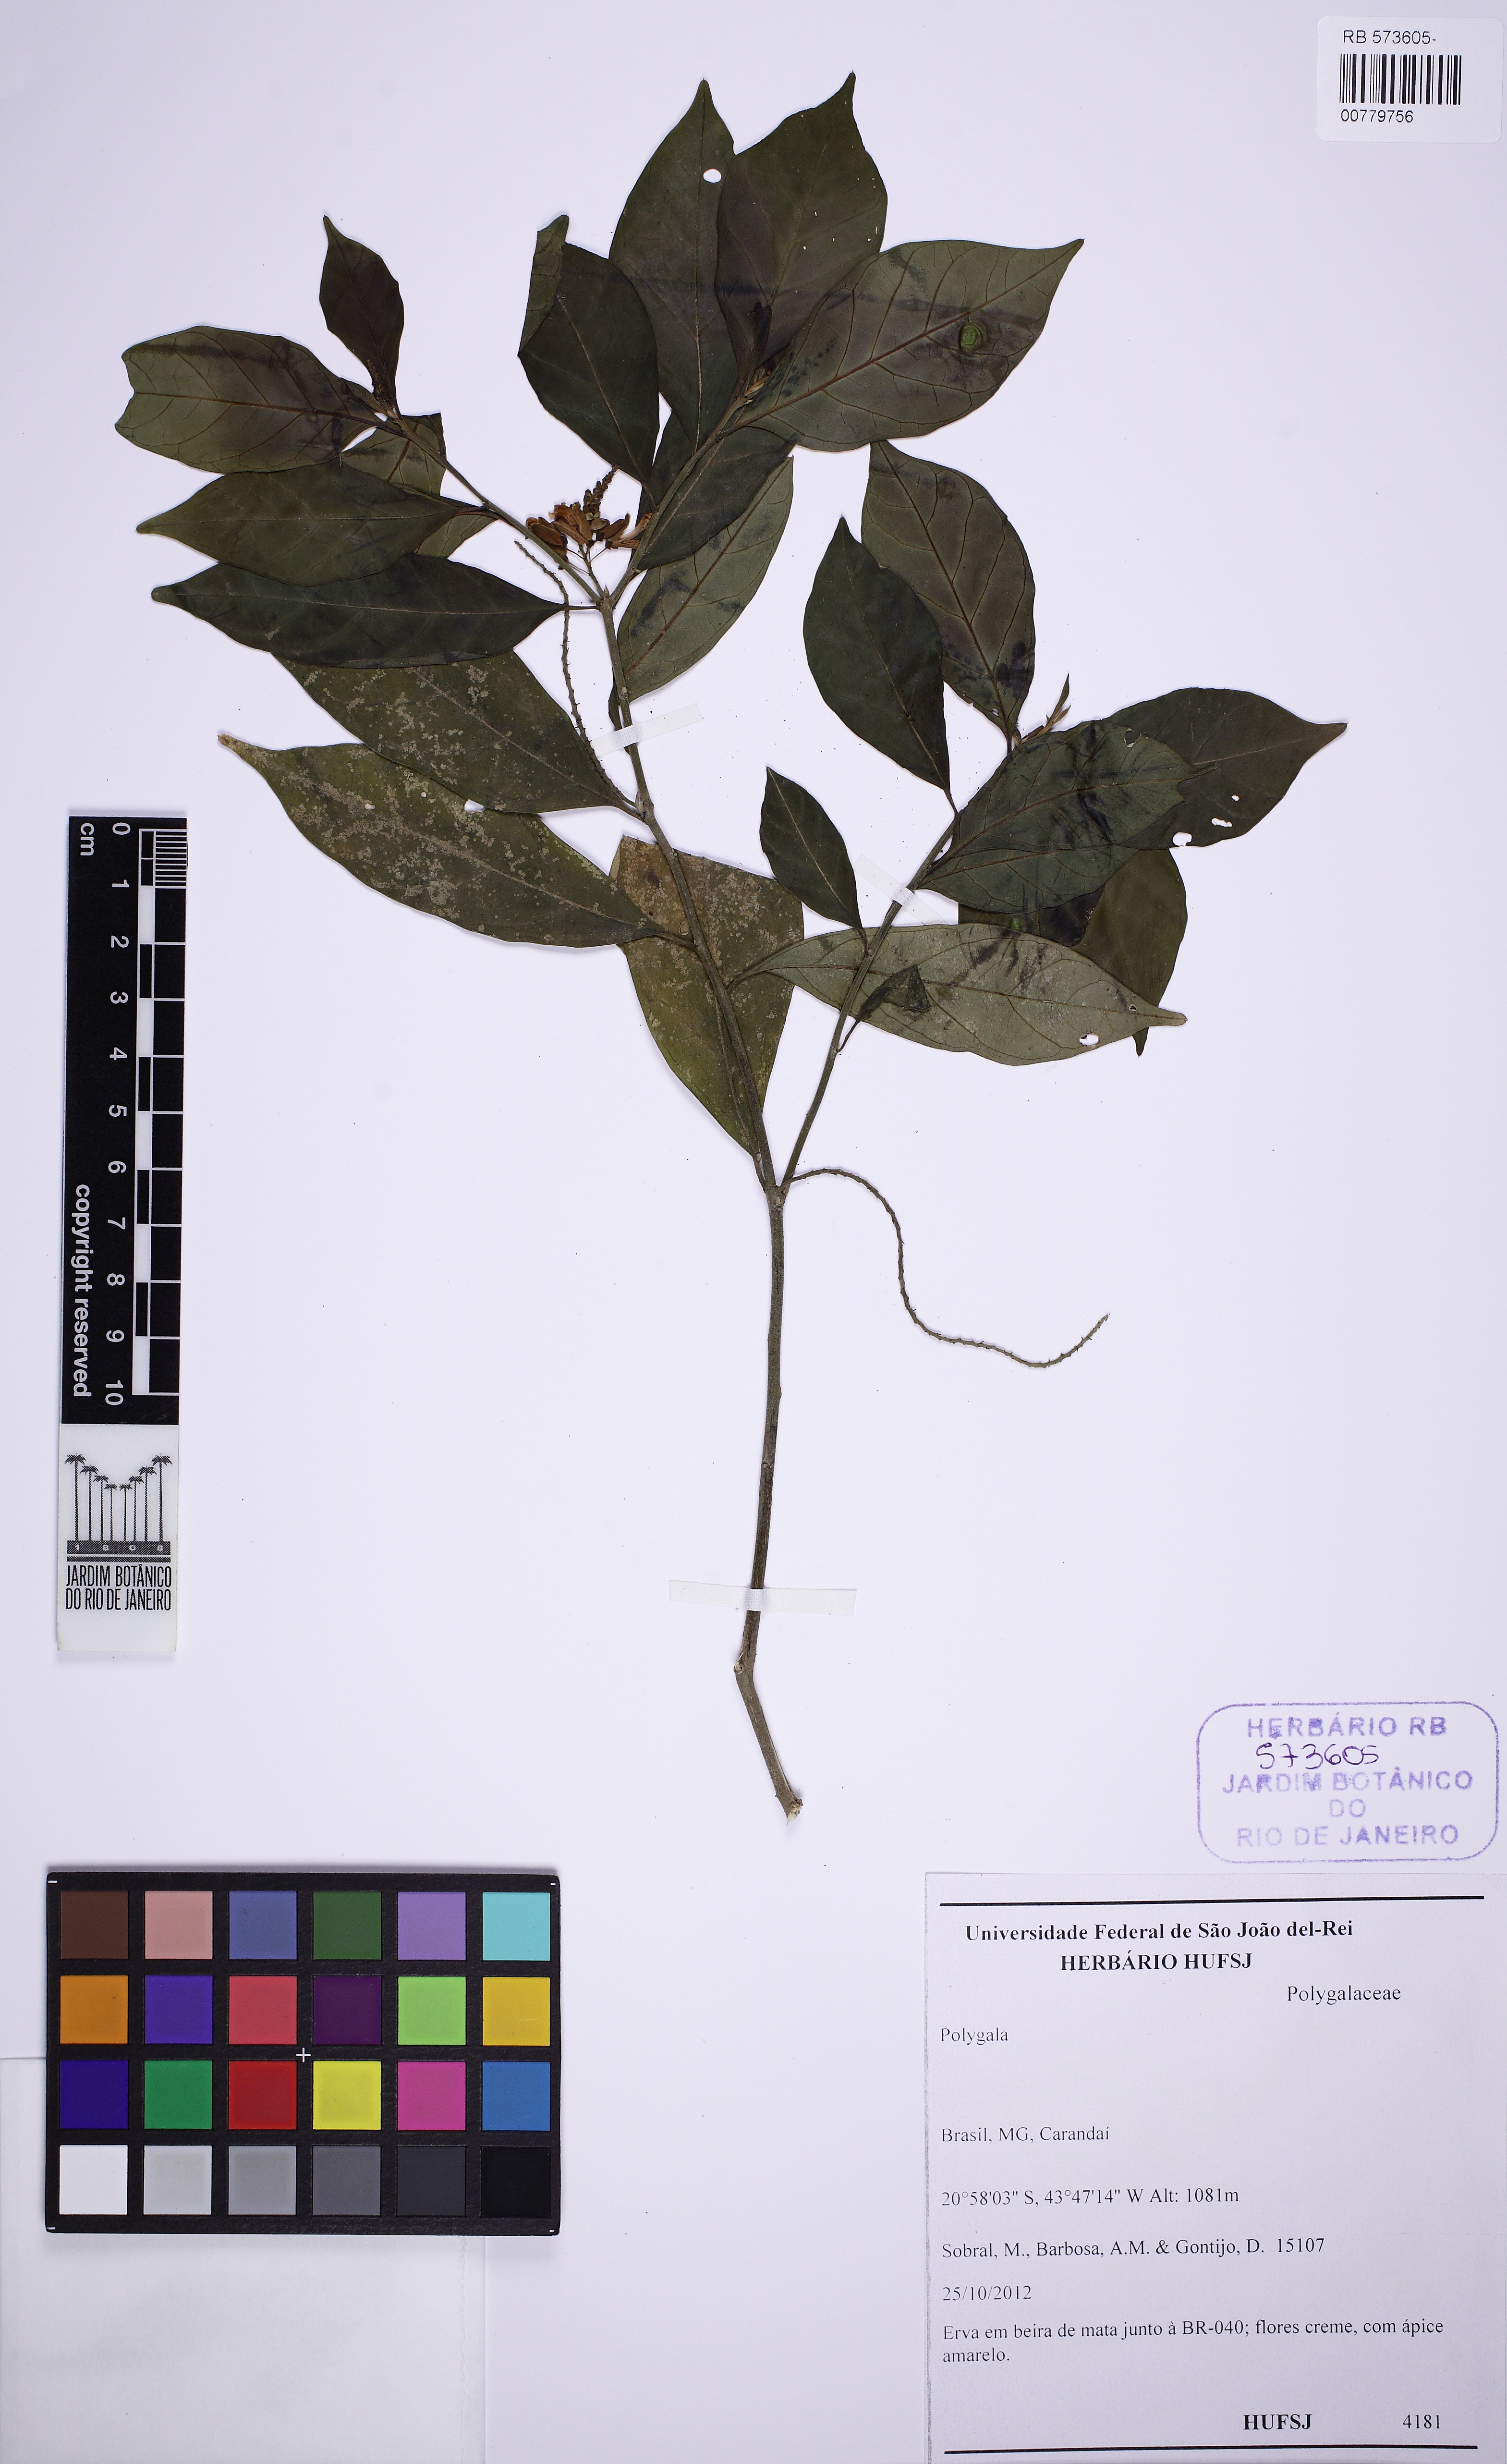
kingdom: Plantae
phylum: Tracheophyta
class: Magnoliopsida
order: Fabales
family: Polygalaceae
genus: Caamembeca
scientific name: Caamembeca
